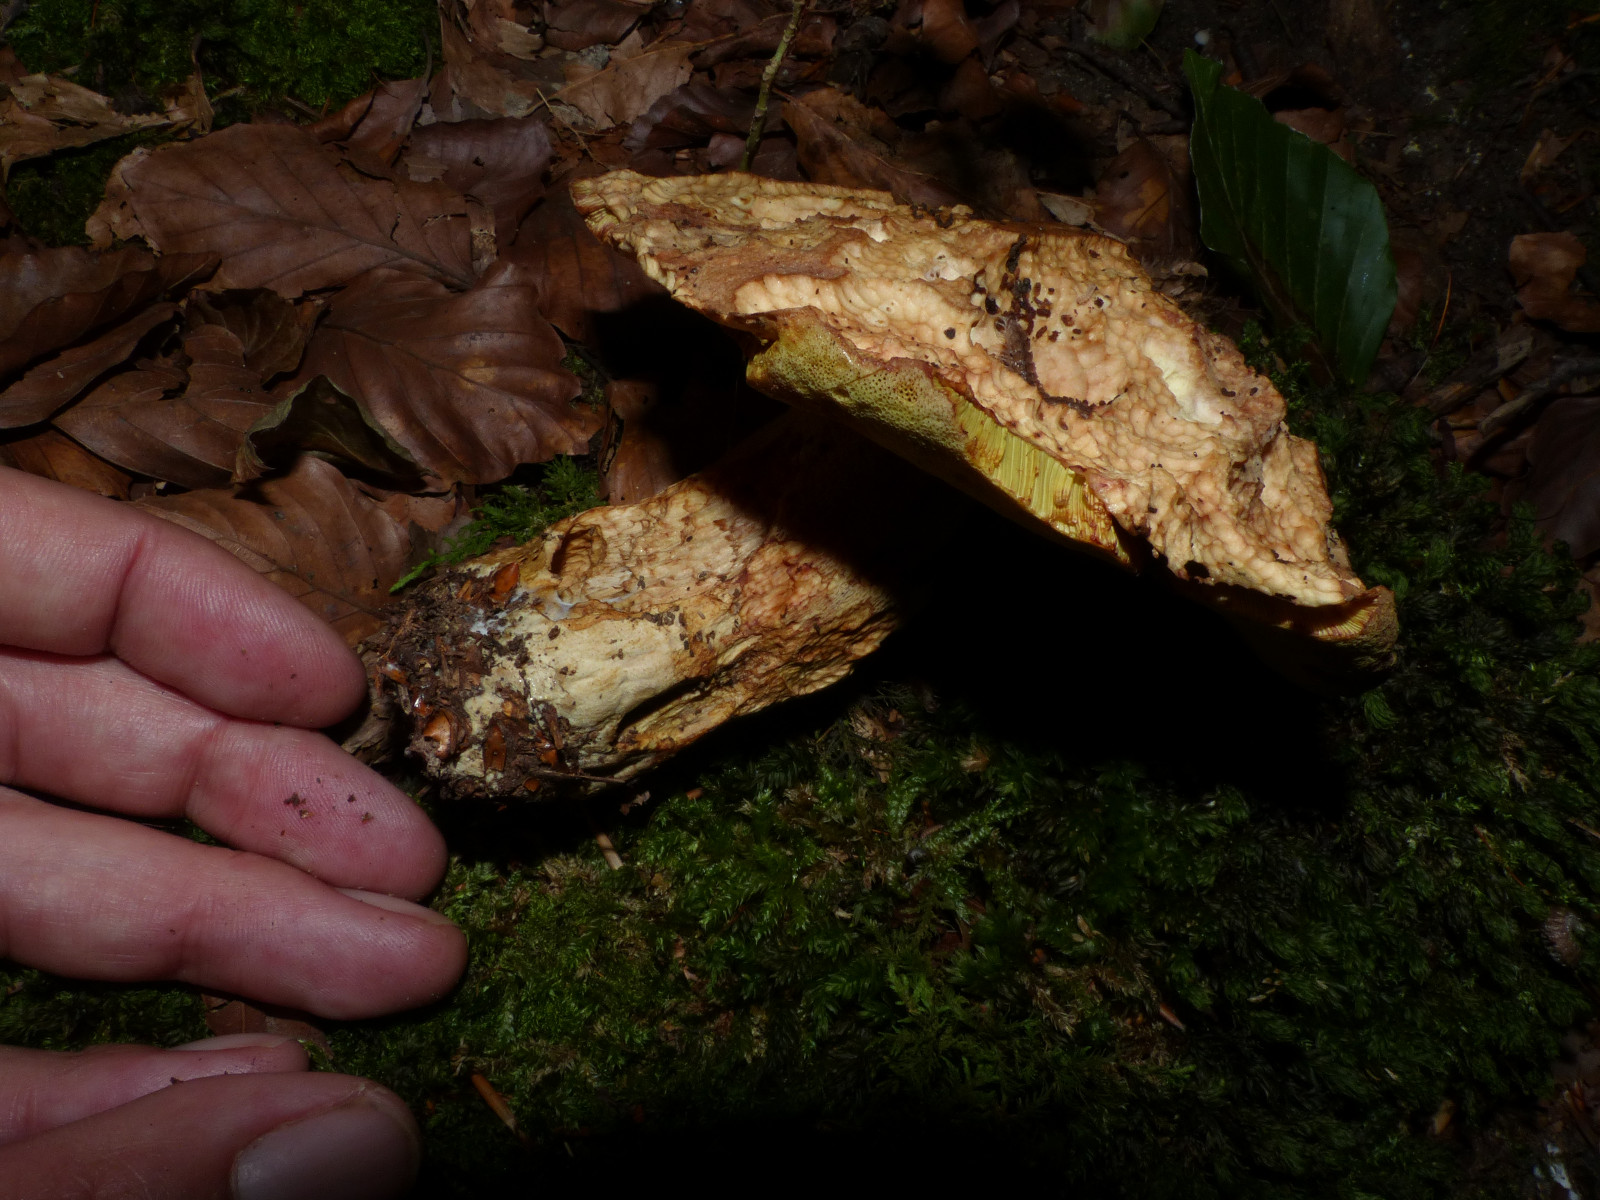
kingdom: Fungi
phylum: Basidiomycota
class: Agaricomycetes
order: Boletales
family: Boletaceae
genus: Butyriboletus
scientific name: Butyriboletus appendiculatus
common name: tenstokket rørhat
